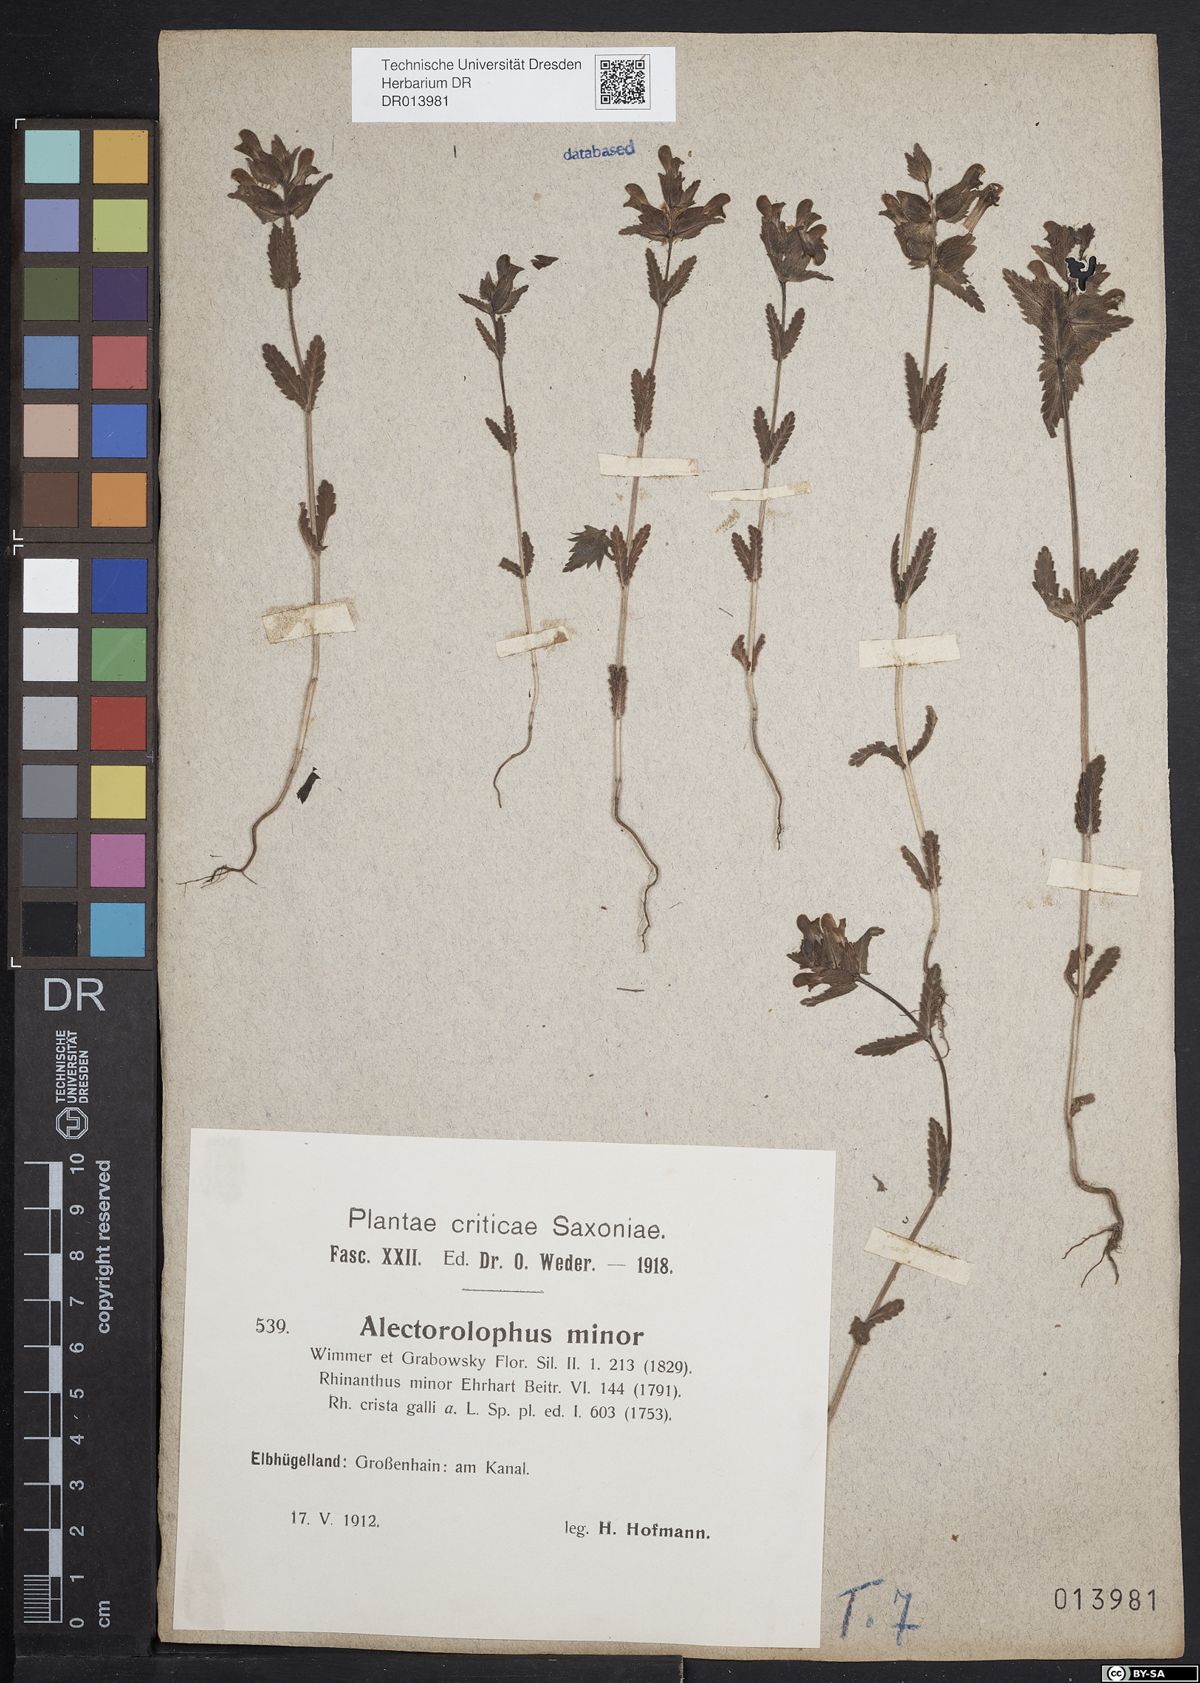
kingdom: Plantae
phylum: Tracheophyta
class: Magnoliopsida
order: Lamiales
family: Orobanchaceae
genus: Rhinanthus
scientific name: Rhinanthus minor
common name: Yellow-rattle
